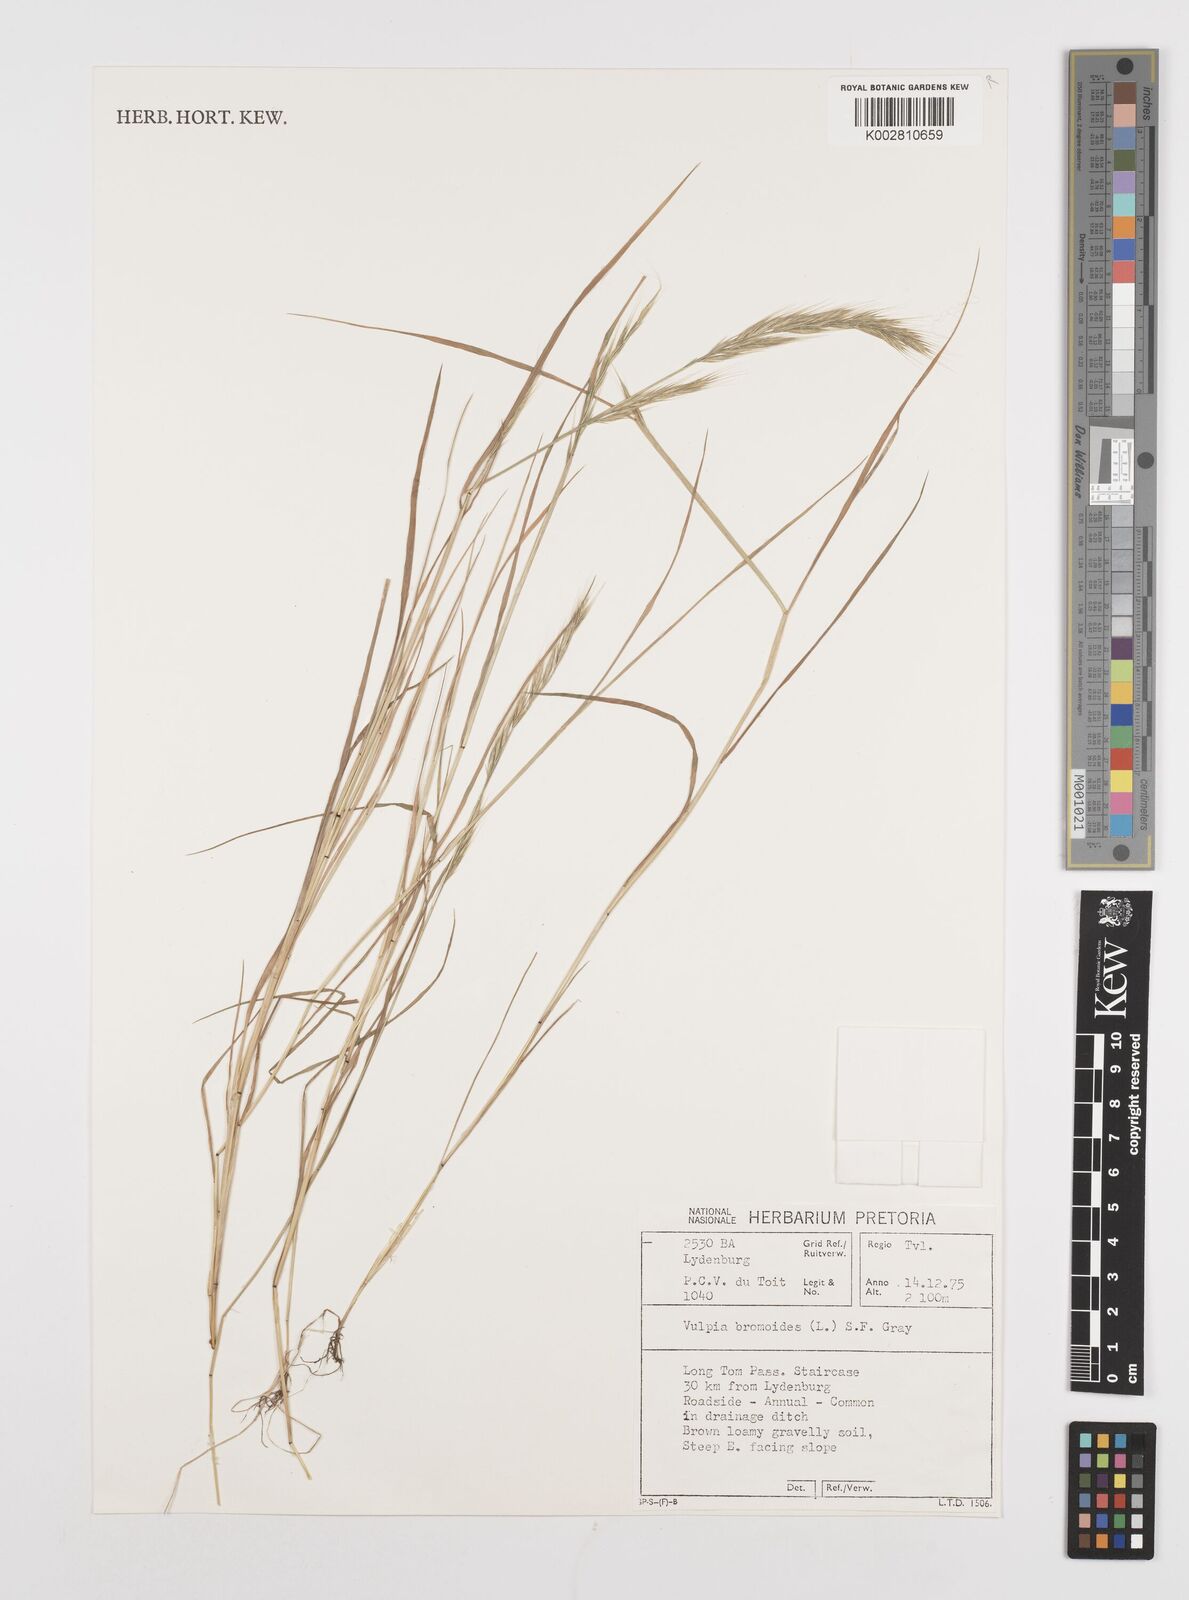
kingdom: Plantae
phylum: Tracheophyta
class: Liliopsida
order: Poales
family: Poaceae
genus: Festuca
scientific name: Festuca bromoides
